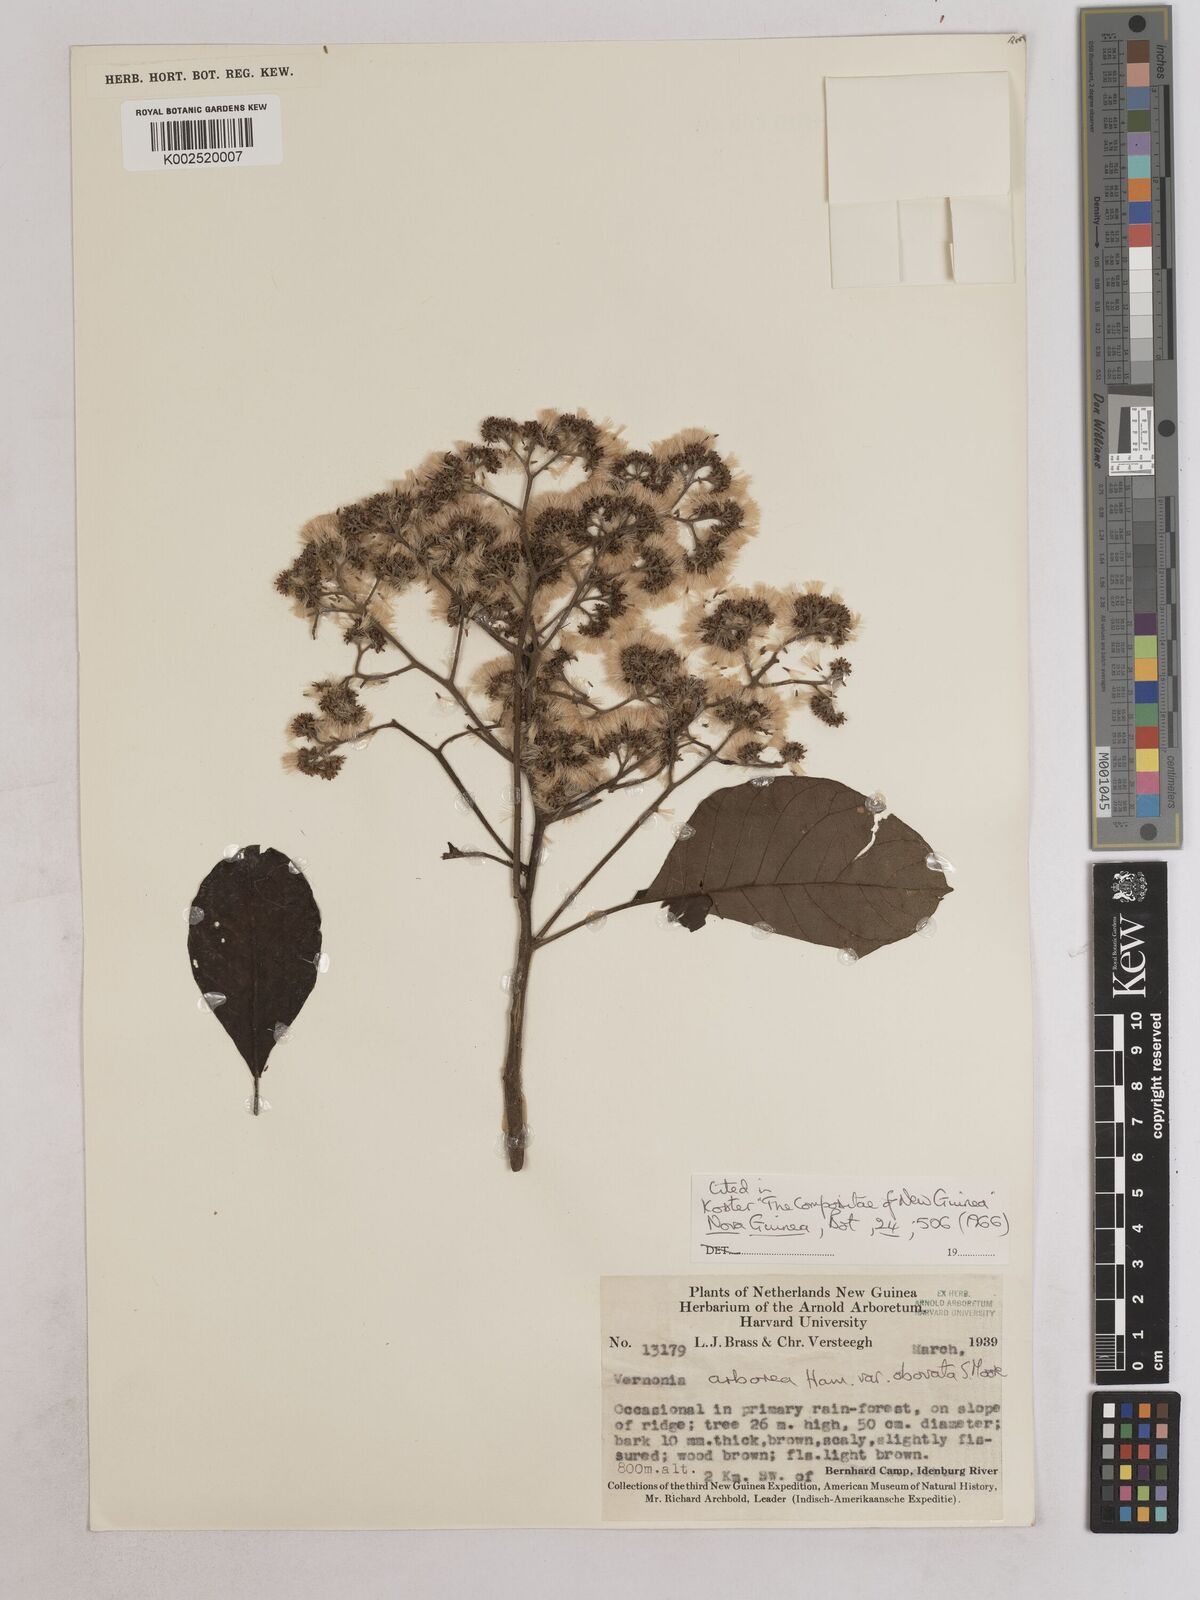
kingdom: Plantae
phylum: Tracheophyta
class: Magnoliopsida
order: Asterales
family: Asteraceae
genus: Strobocalyx
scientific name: Strobocalyx arborea
